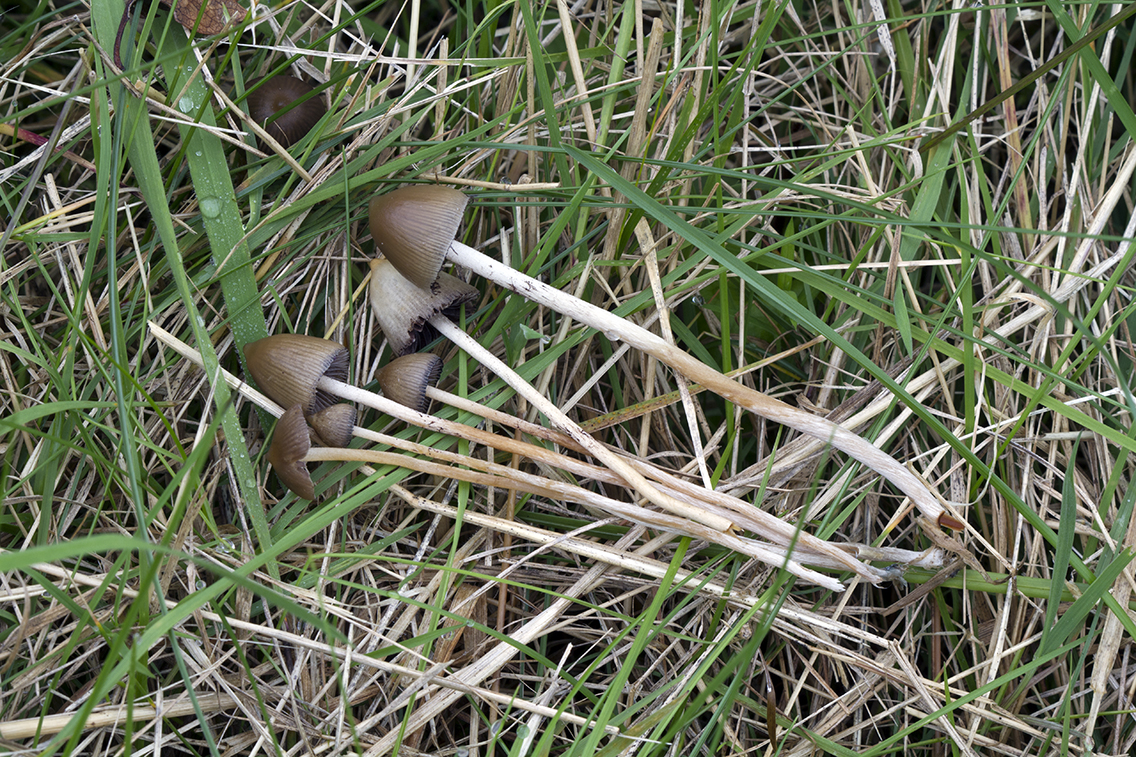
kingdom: Fungi
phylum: Basidiomycota
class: Agaricomycetes
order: Agaricales
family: Hymenogastraceae
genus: Psilocybe
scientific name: Psilocybe semilanceata
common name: spids nøgenhat
